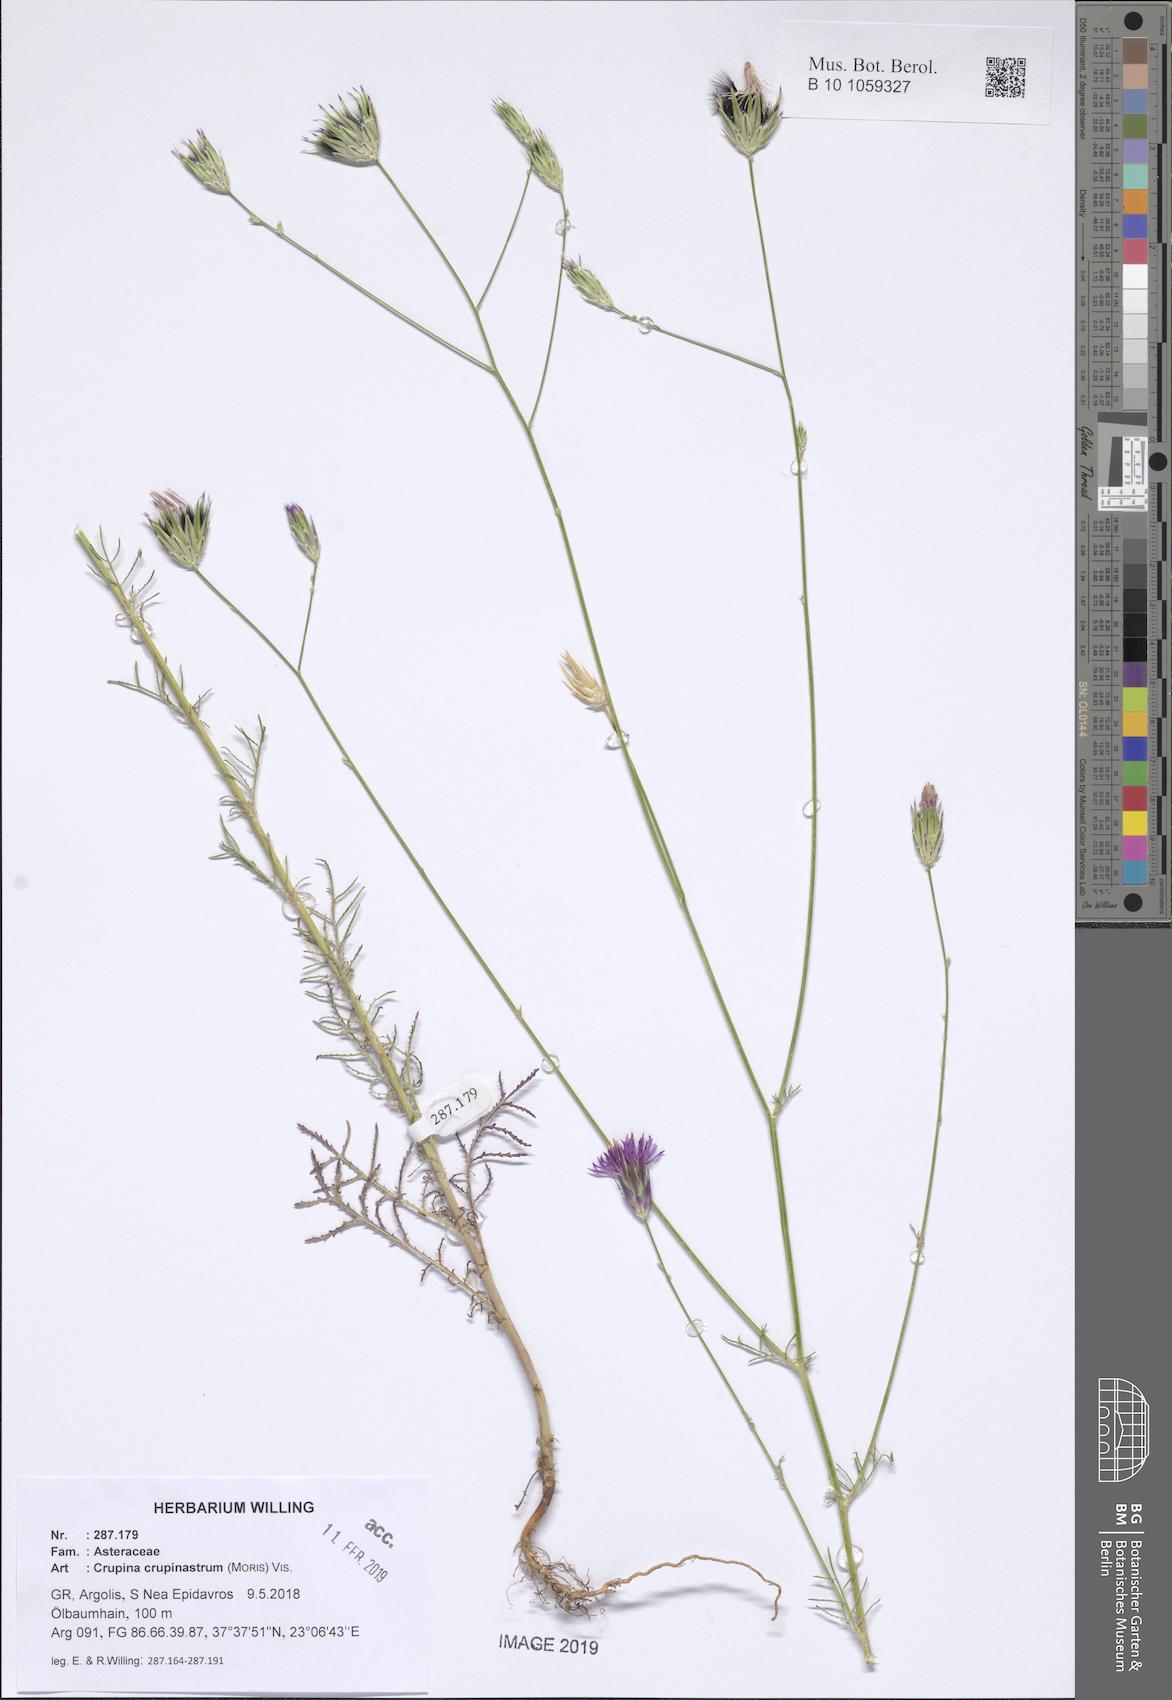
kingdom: Plantae
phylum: Tracheophyta
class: Magnoliopsida
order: Asterales
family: Asteraceae
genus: Crupina
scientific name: Crupina crupinastrum
